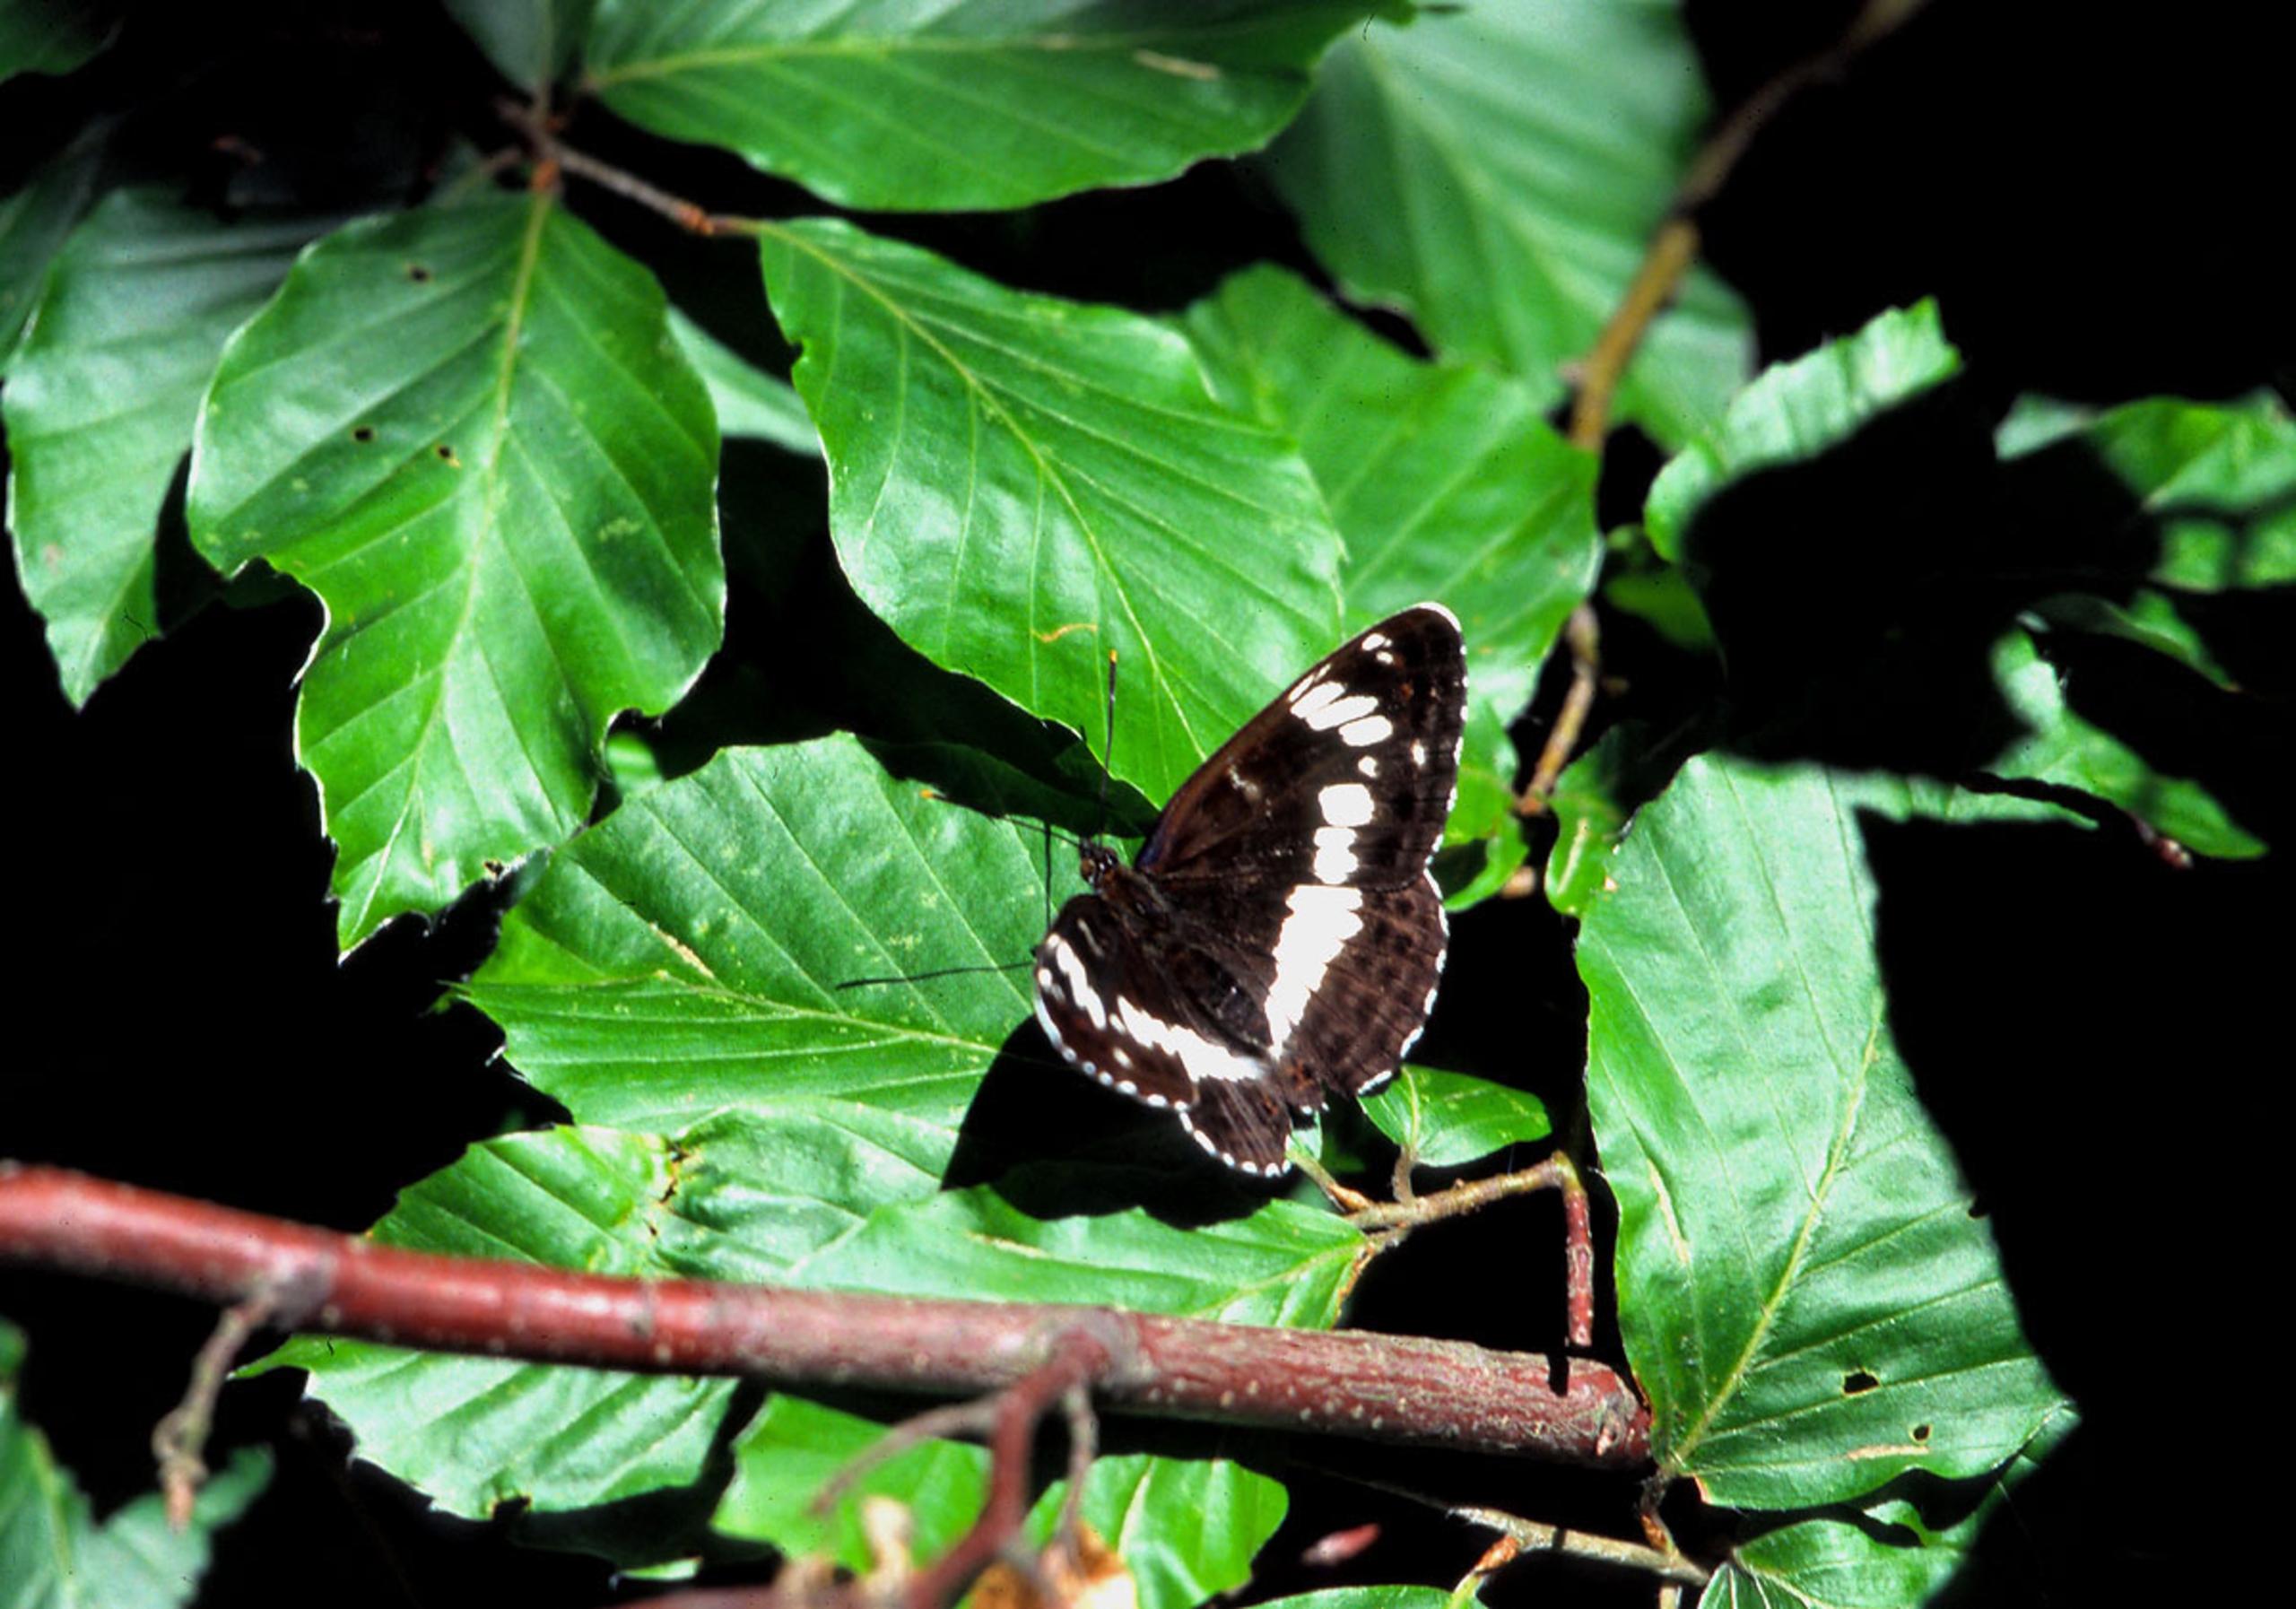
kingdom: Animalia
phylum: Arthropoda
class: Insecta
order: Lepidoptera
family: Nymphalidae
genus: Ladoga
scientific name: Ladoga camilla
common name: Hvid admiral
